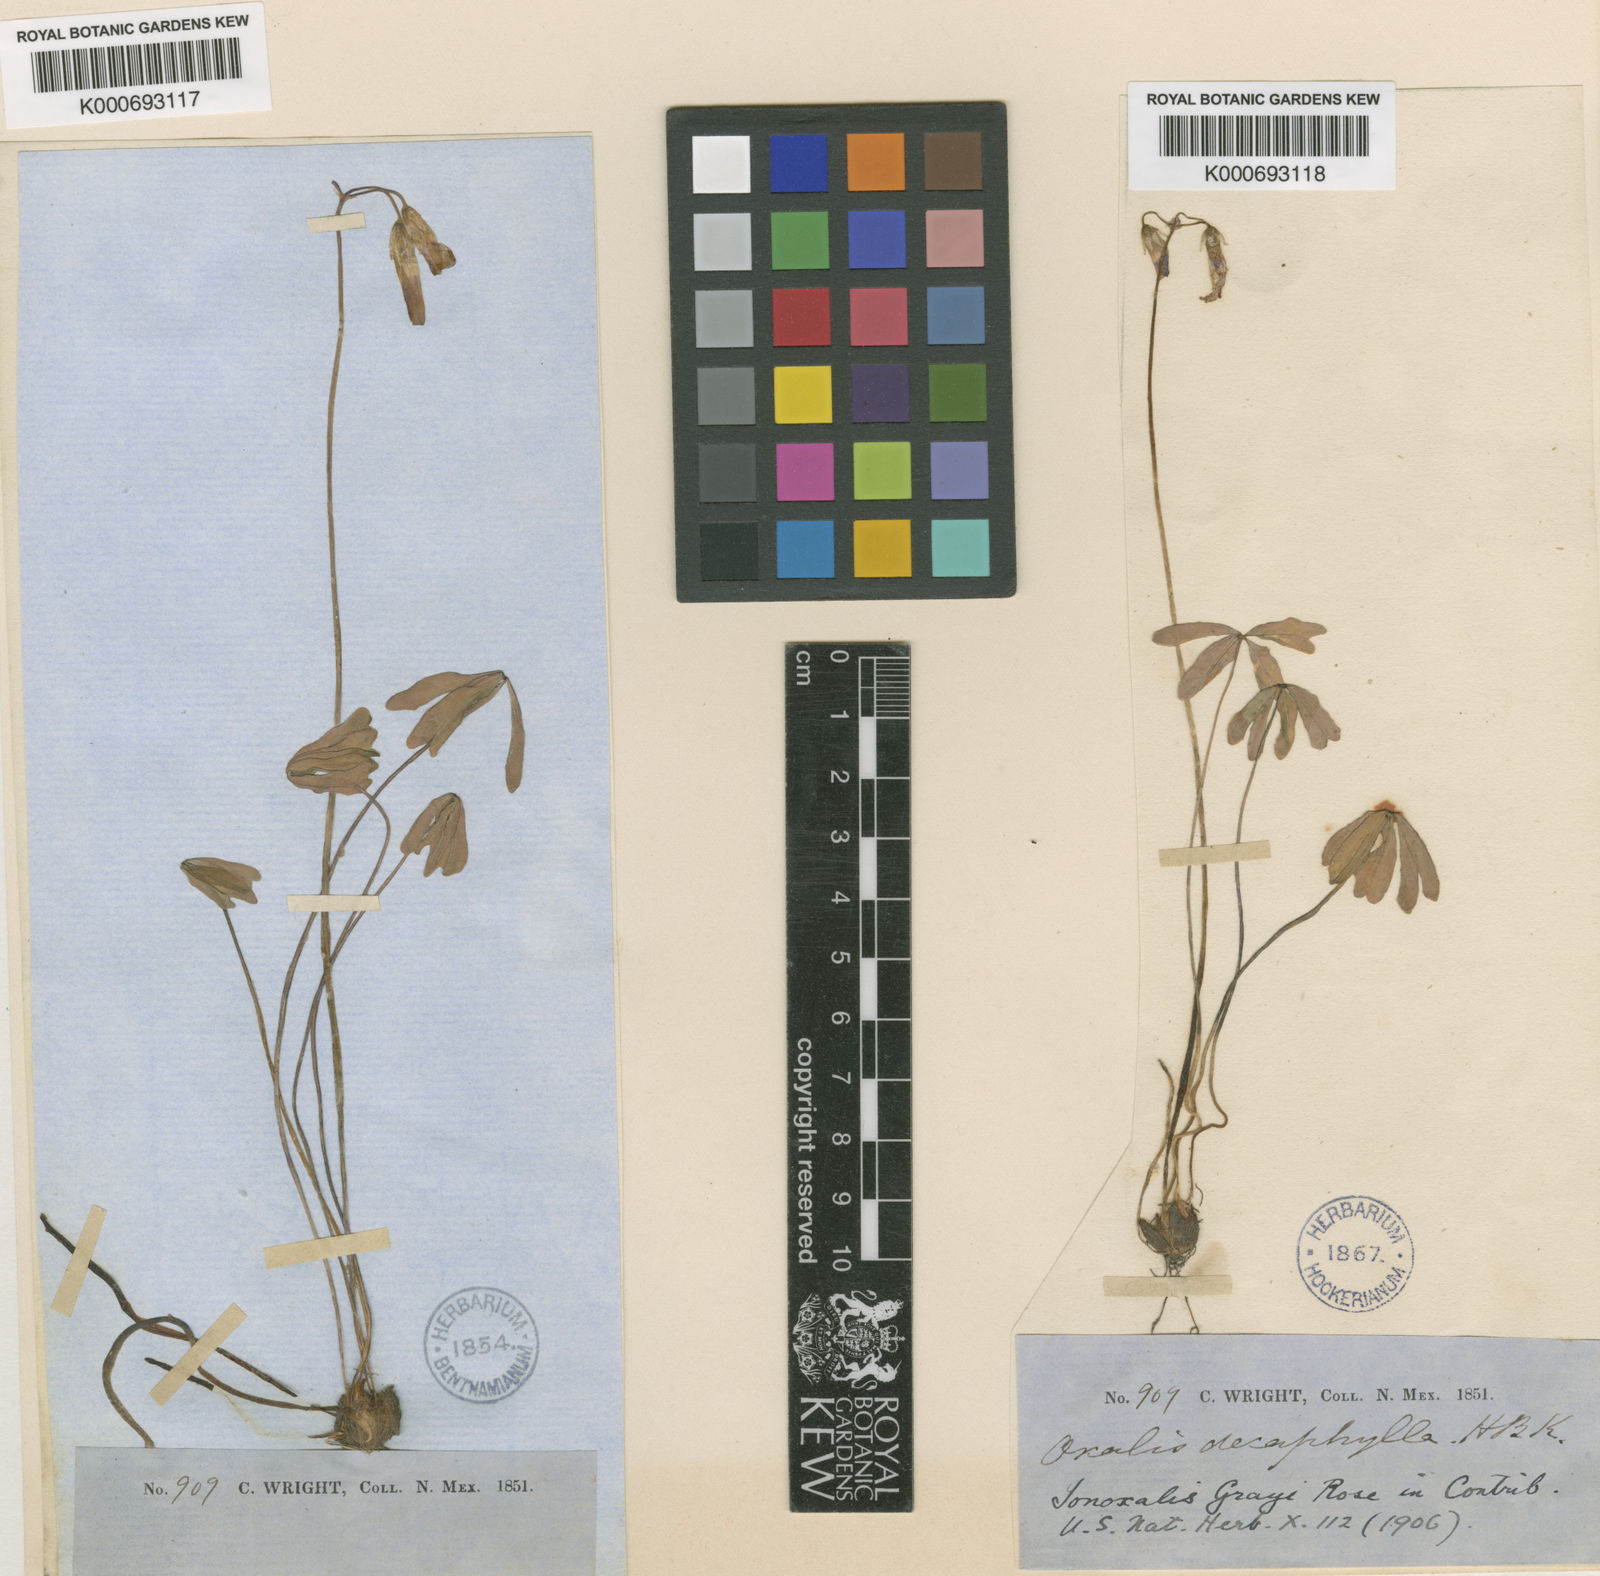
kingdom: Plantae
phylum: Tracheophyta
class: Magnoliopsida
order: Oxalidales
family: Oxalidaceae
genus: Oxalis
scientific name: Oxalis decaphylla
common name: Ten-leaved pink-sorrel
